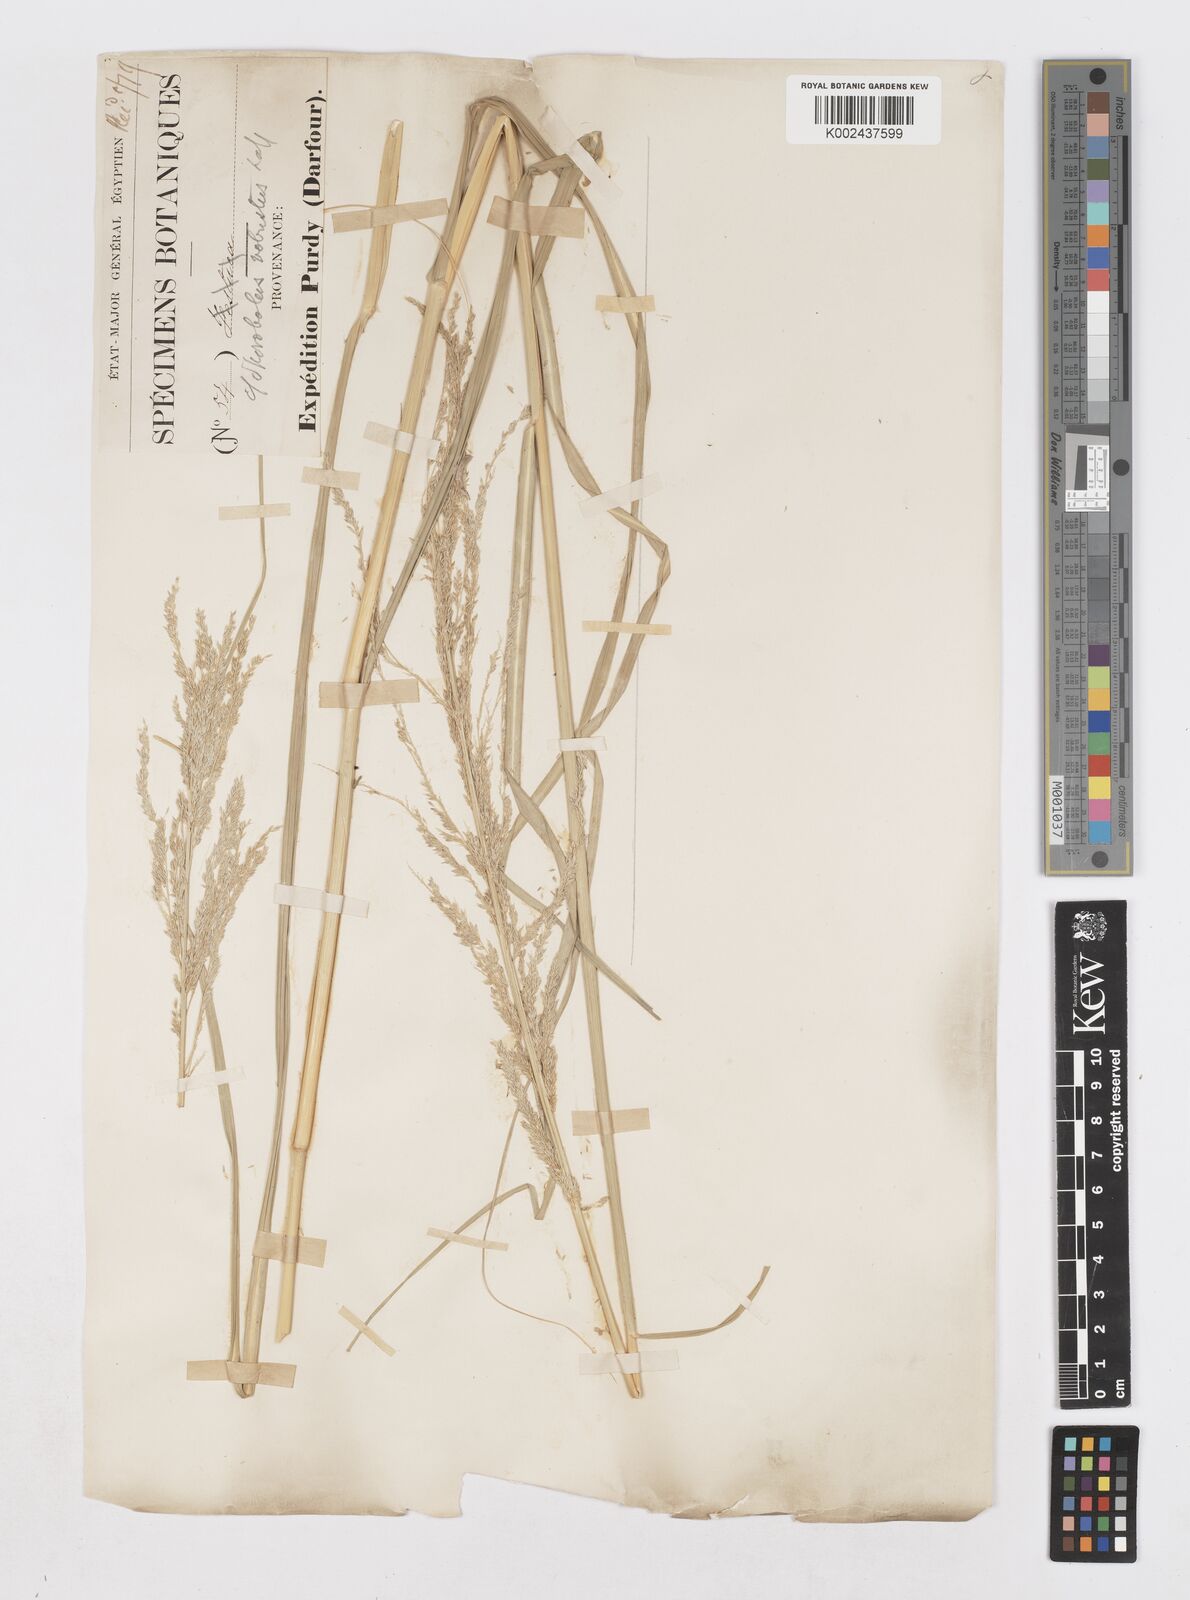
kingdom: Plantae
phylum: Tracheophyta
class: Liliopsida
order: Poales
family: Poaceae
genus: Sporobolus
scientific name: Sporobolus consimilis
